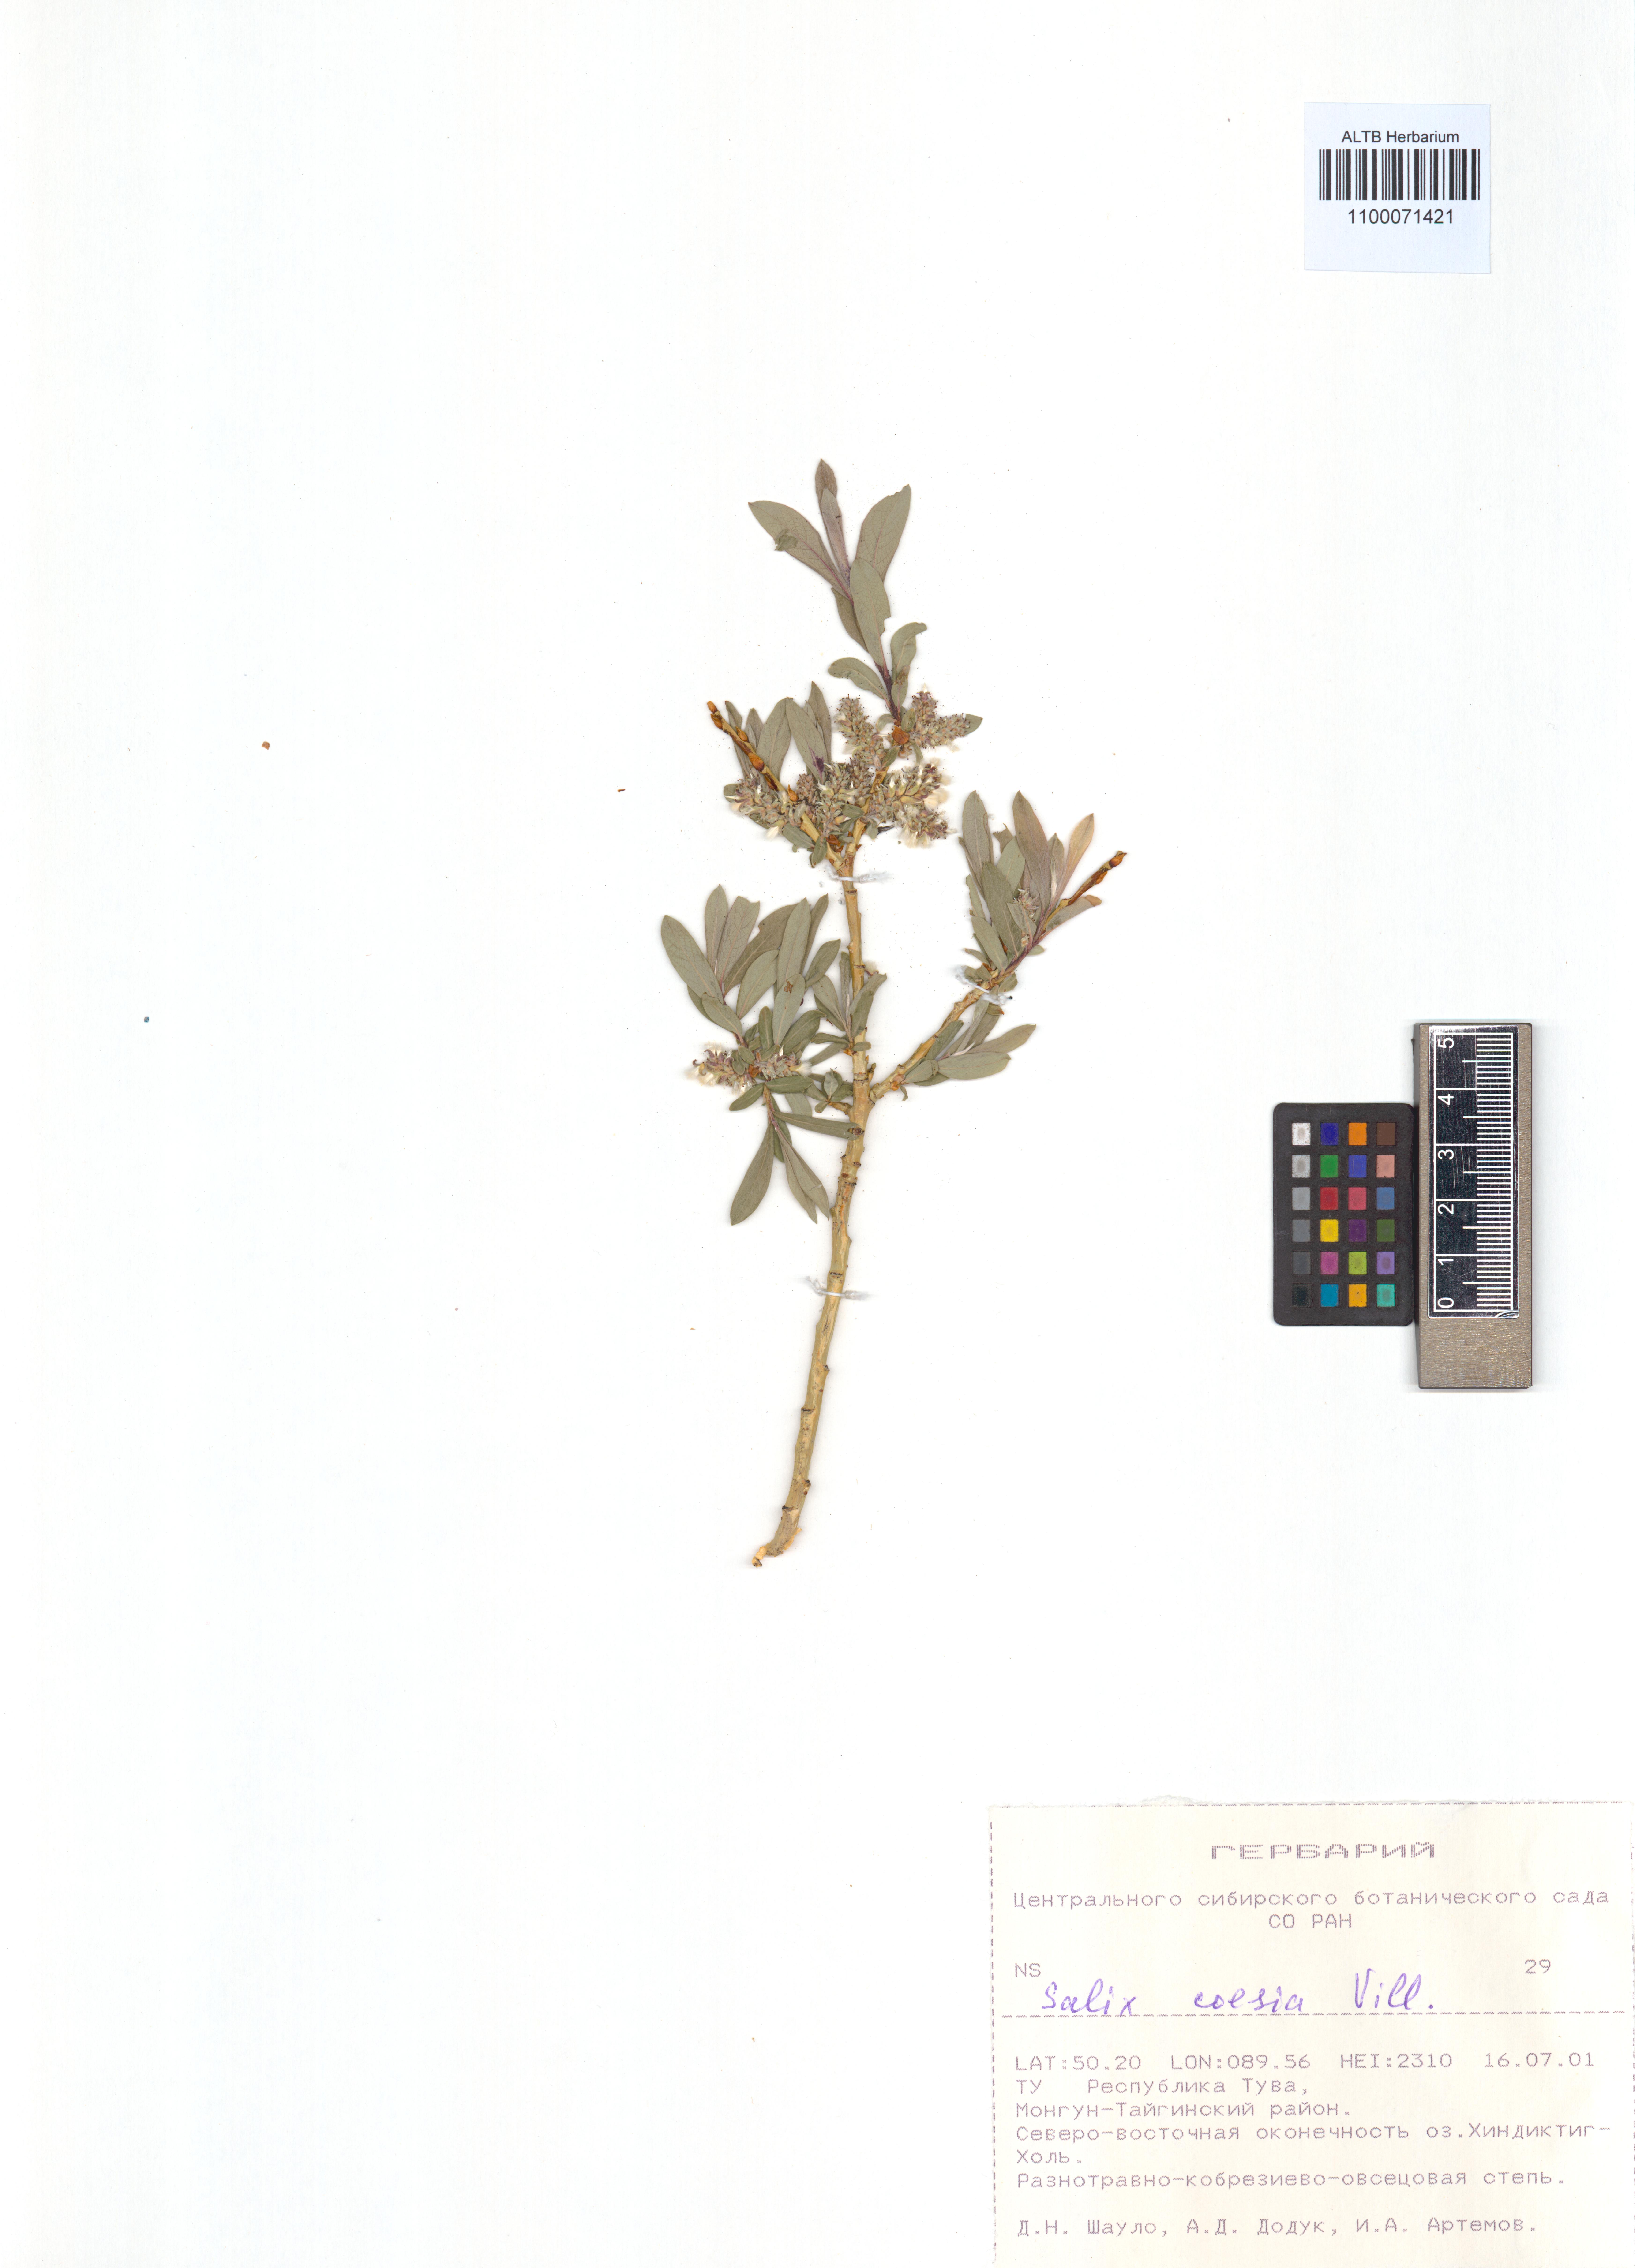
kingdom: Plantae
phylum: Tracheophyta
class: Magnoliopsida
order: Malpighiales
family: Salicaceae
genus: Salix
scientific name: Salix caesia
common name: Blue willow
